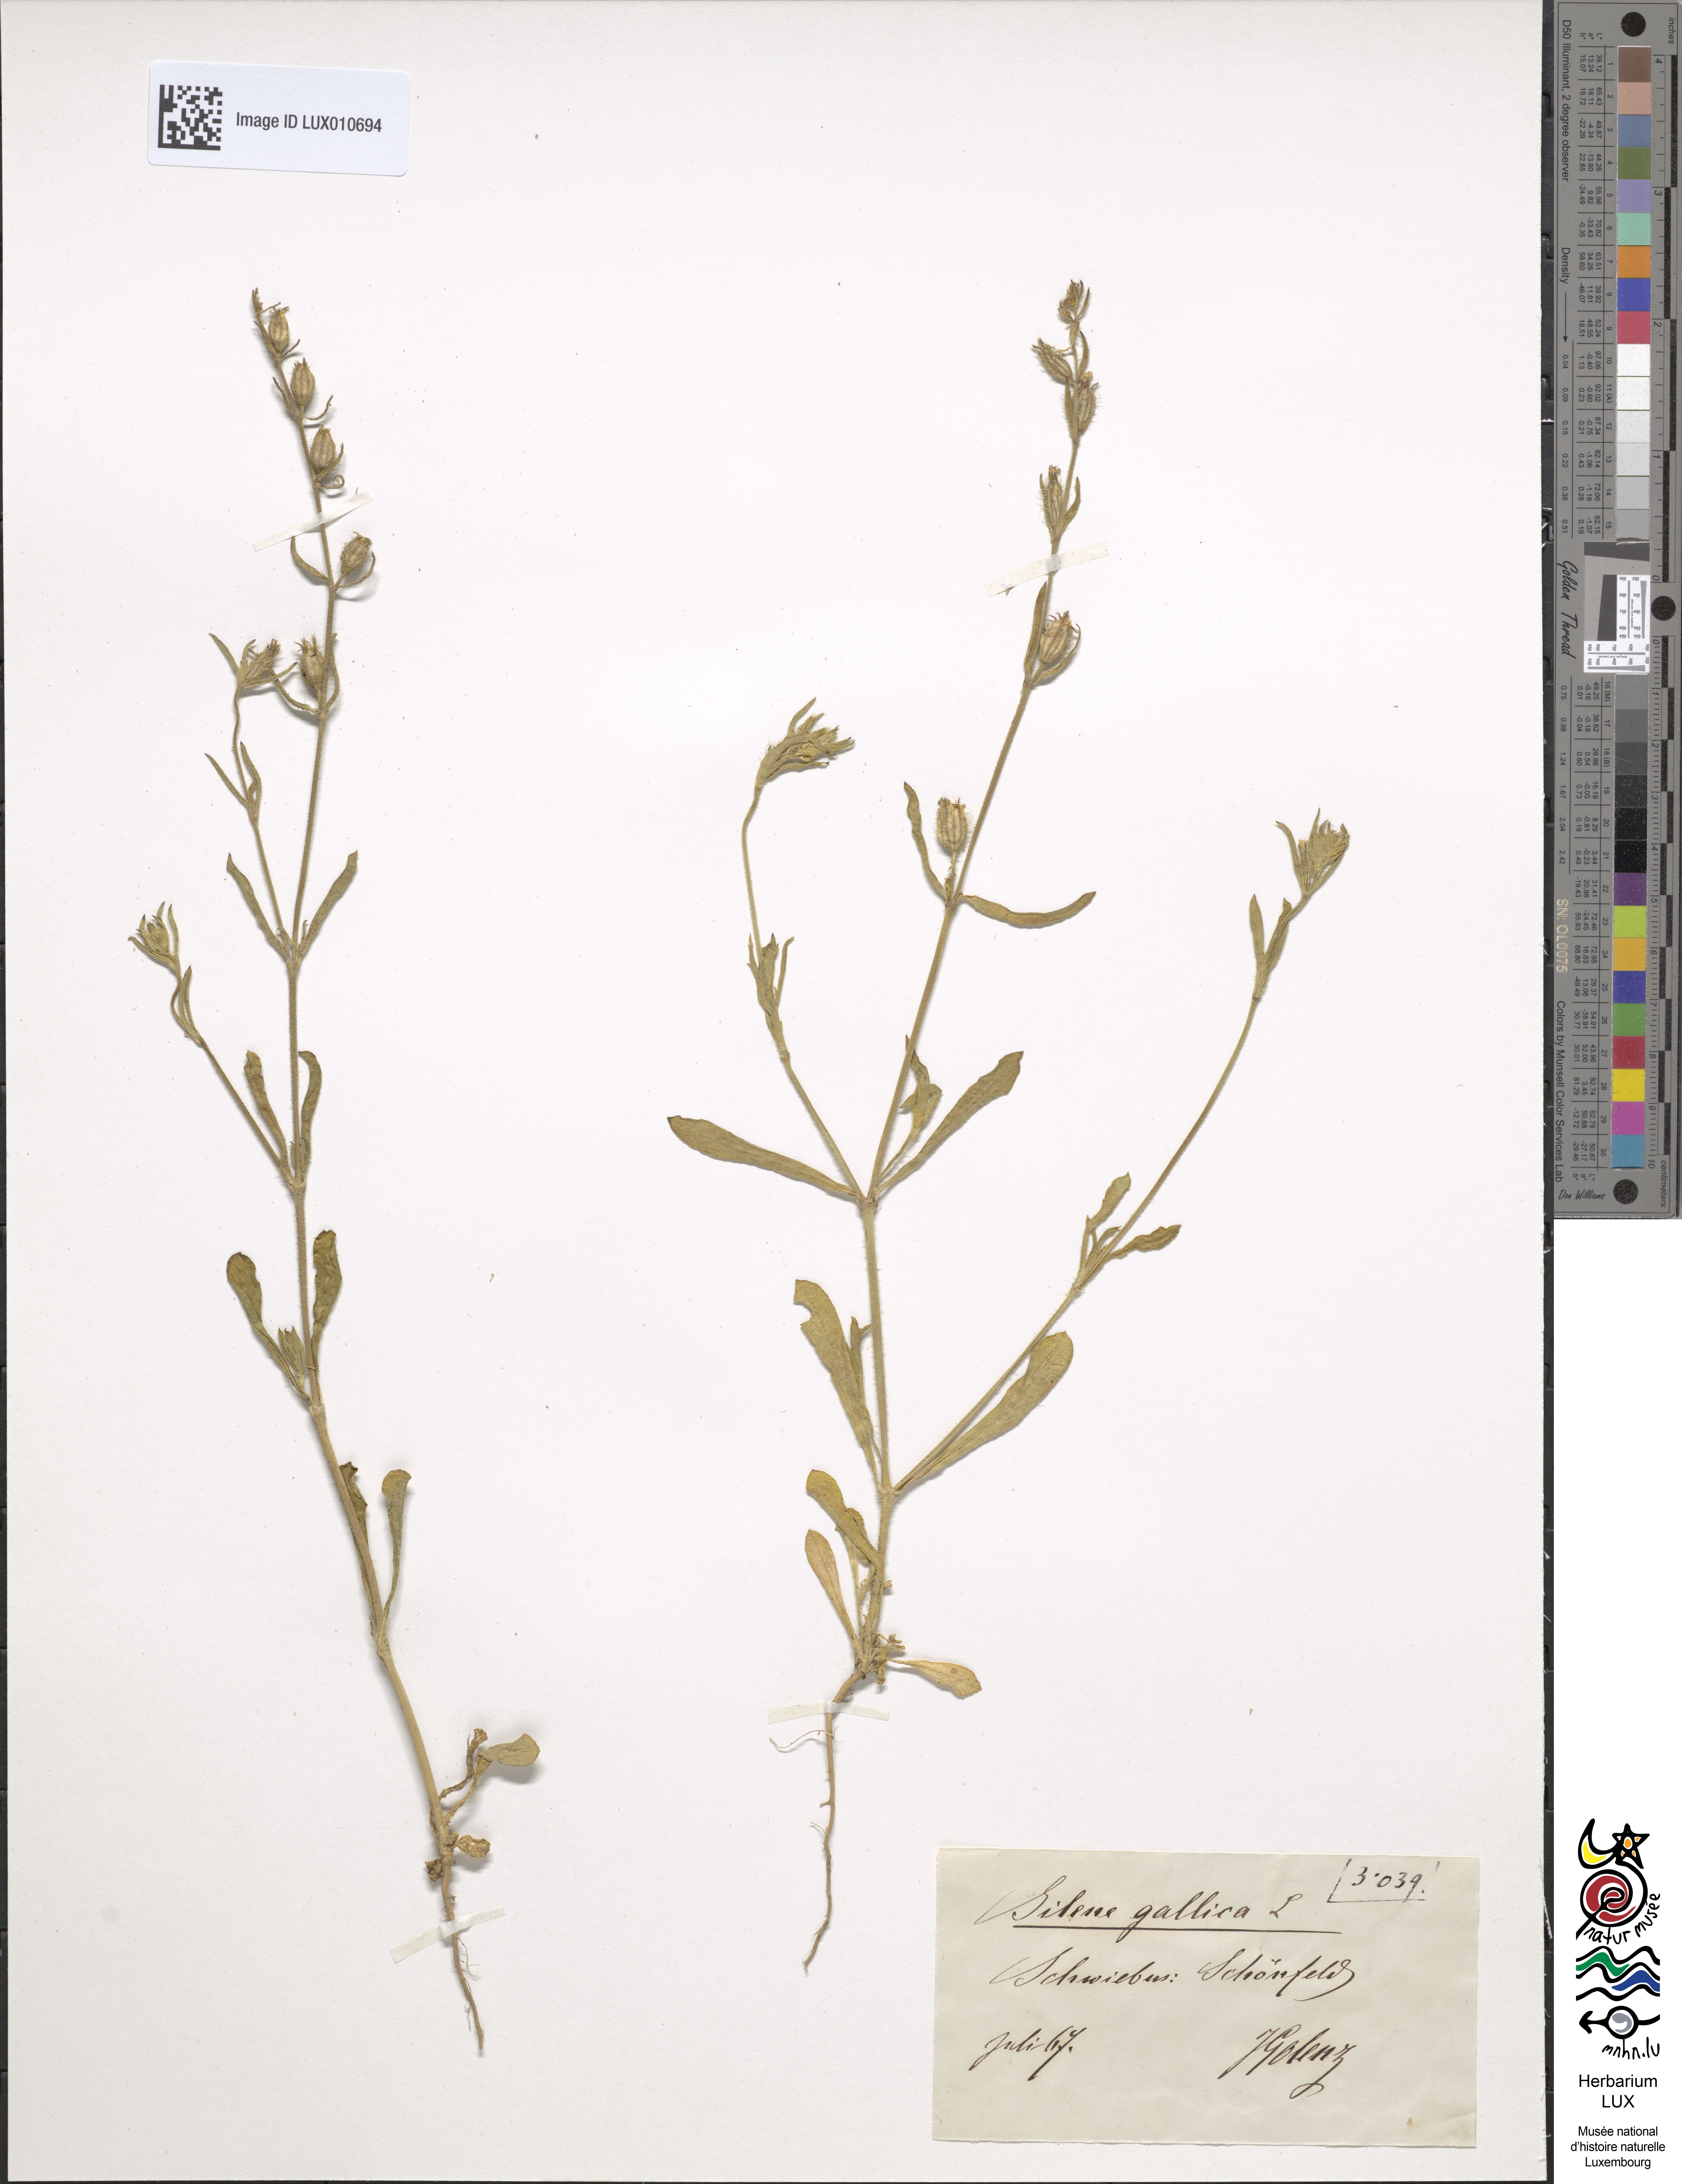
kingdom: Plantae
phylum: Tracheophyta
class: Magnoliopsida
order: Caryophyllales
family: Caryophyllaceae
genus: Silene
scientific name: Silene gallica
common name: Small-flowered catchfly
